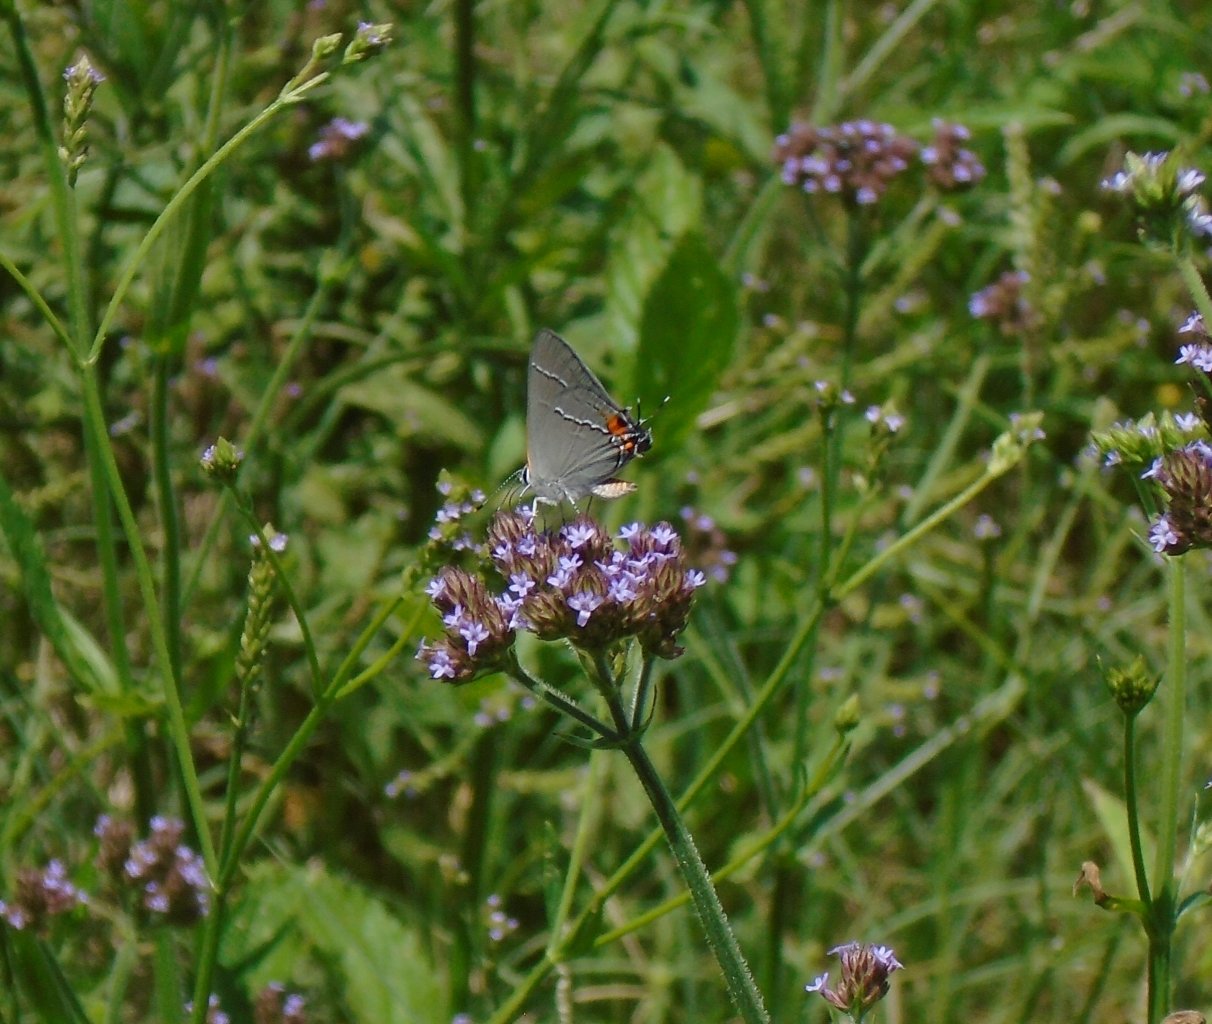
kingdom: Animalia
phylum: Arthropoda
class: Insecta
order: Lepidoptera
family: Lycaenidae
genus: Strymon
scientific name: Strymon melinus
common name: Gray Hairstreak
